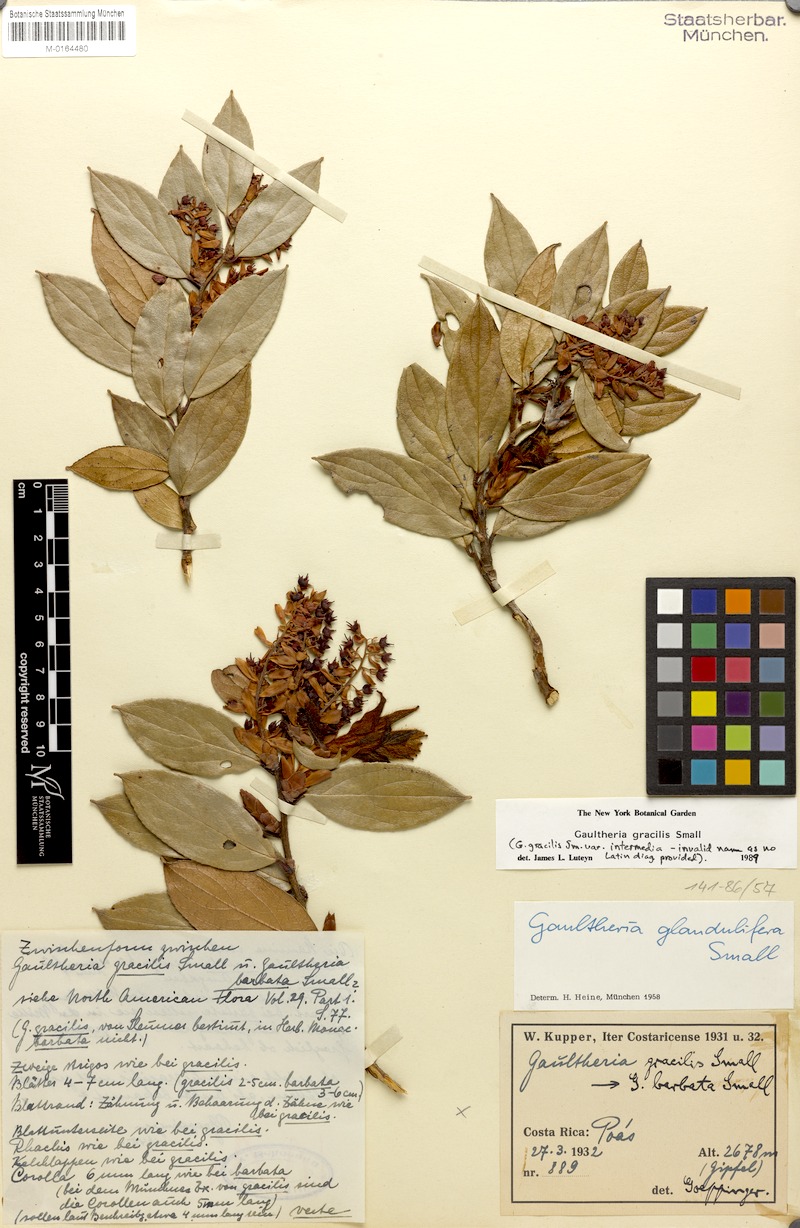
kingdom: Plantae
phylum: Tracheophyta
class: Magnoliopsida
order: Ericales
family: Ericaceae
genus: Gaultheria
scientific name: Gaultheria gracilis
